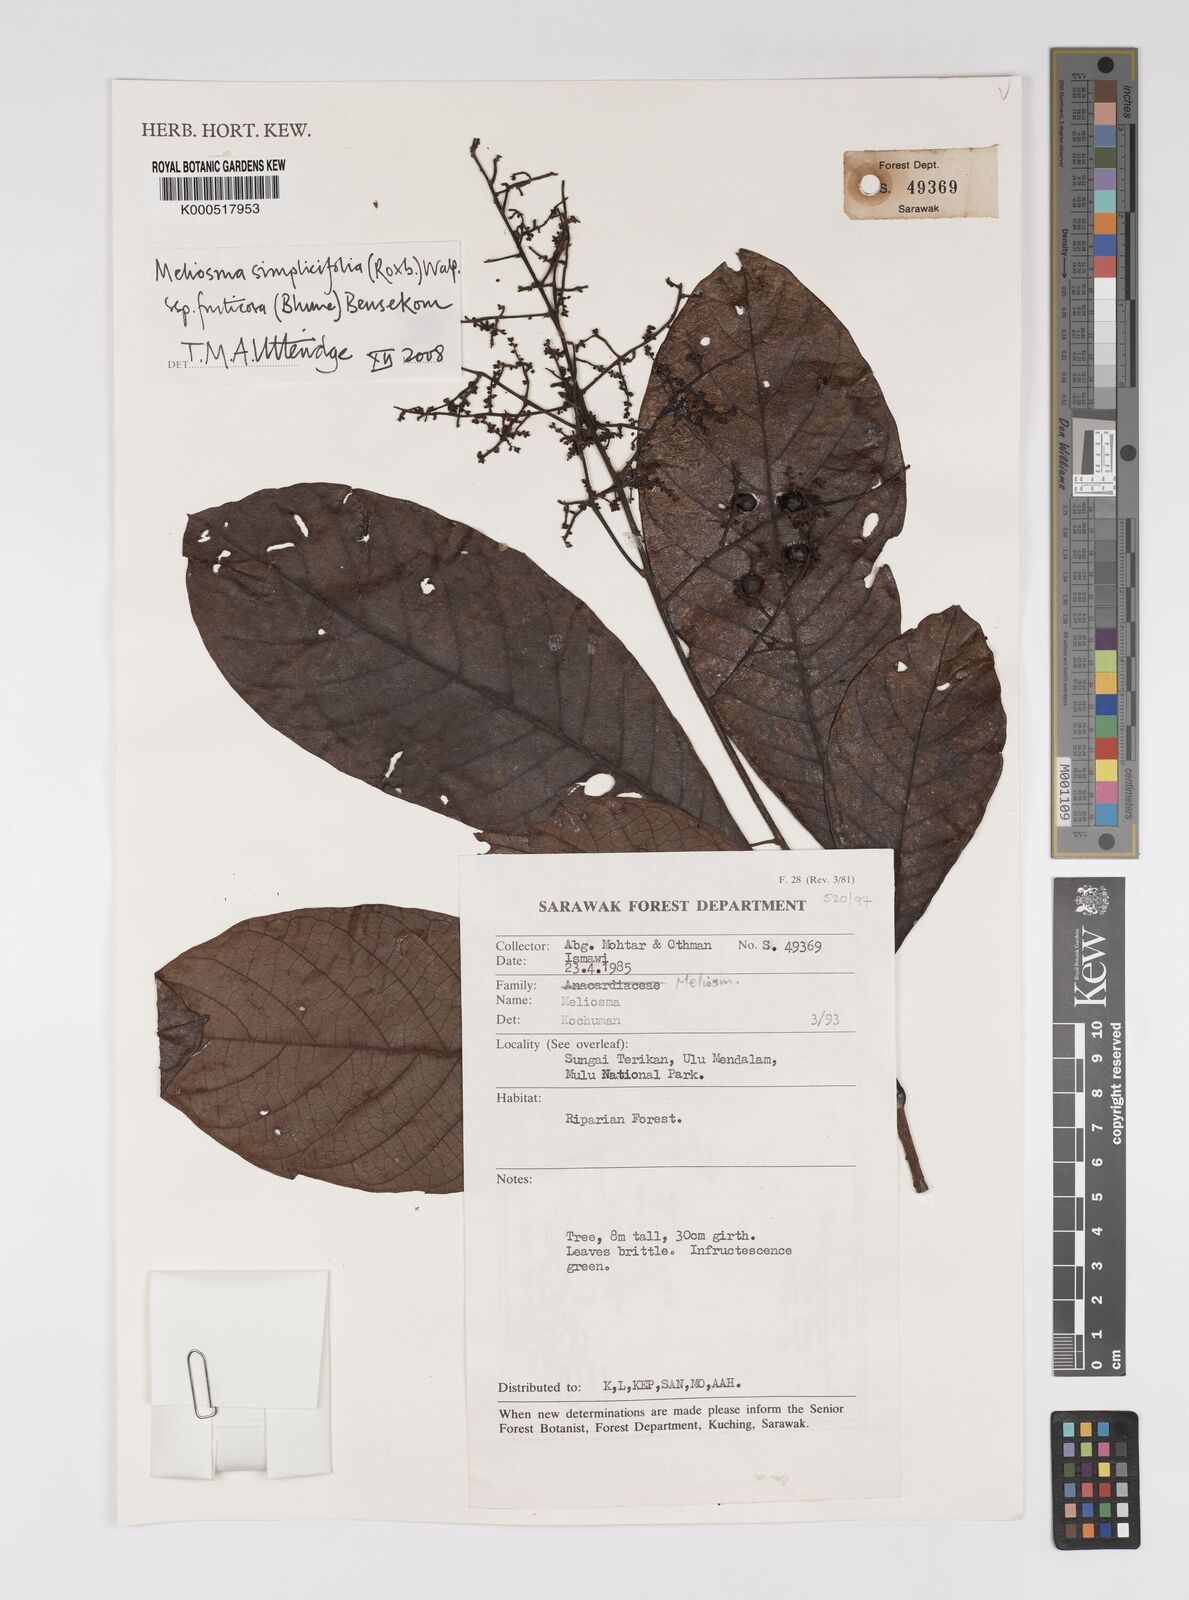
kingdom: Plantae
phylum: Tracheophyta
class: Magnoliopsida
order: Proteales
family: Sabiaceae
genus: Meliosma
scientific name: Meliosma simplicifolia
